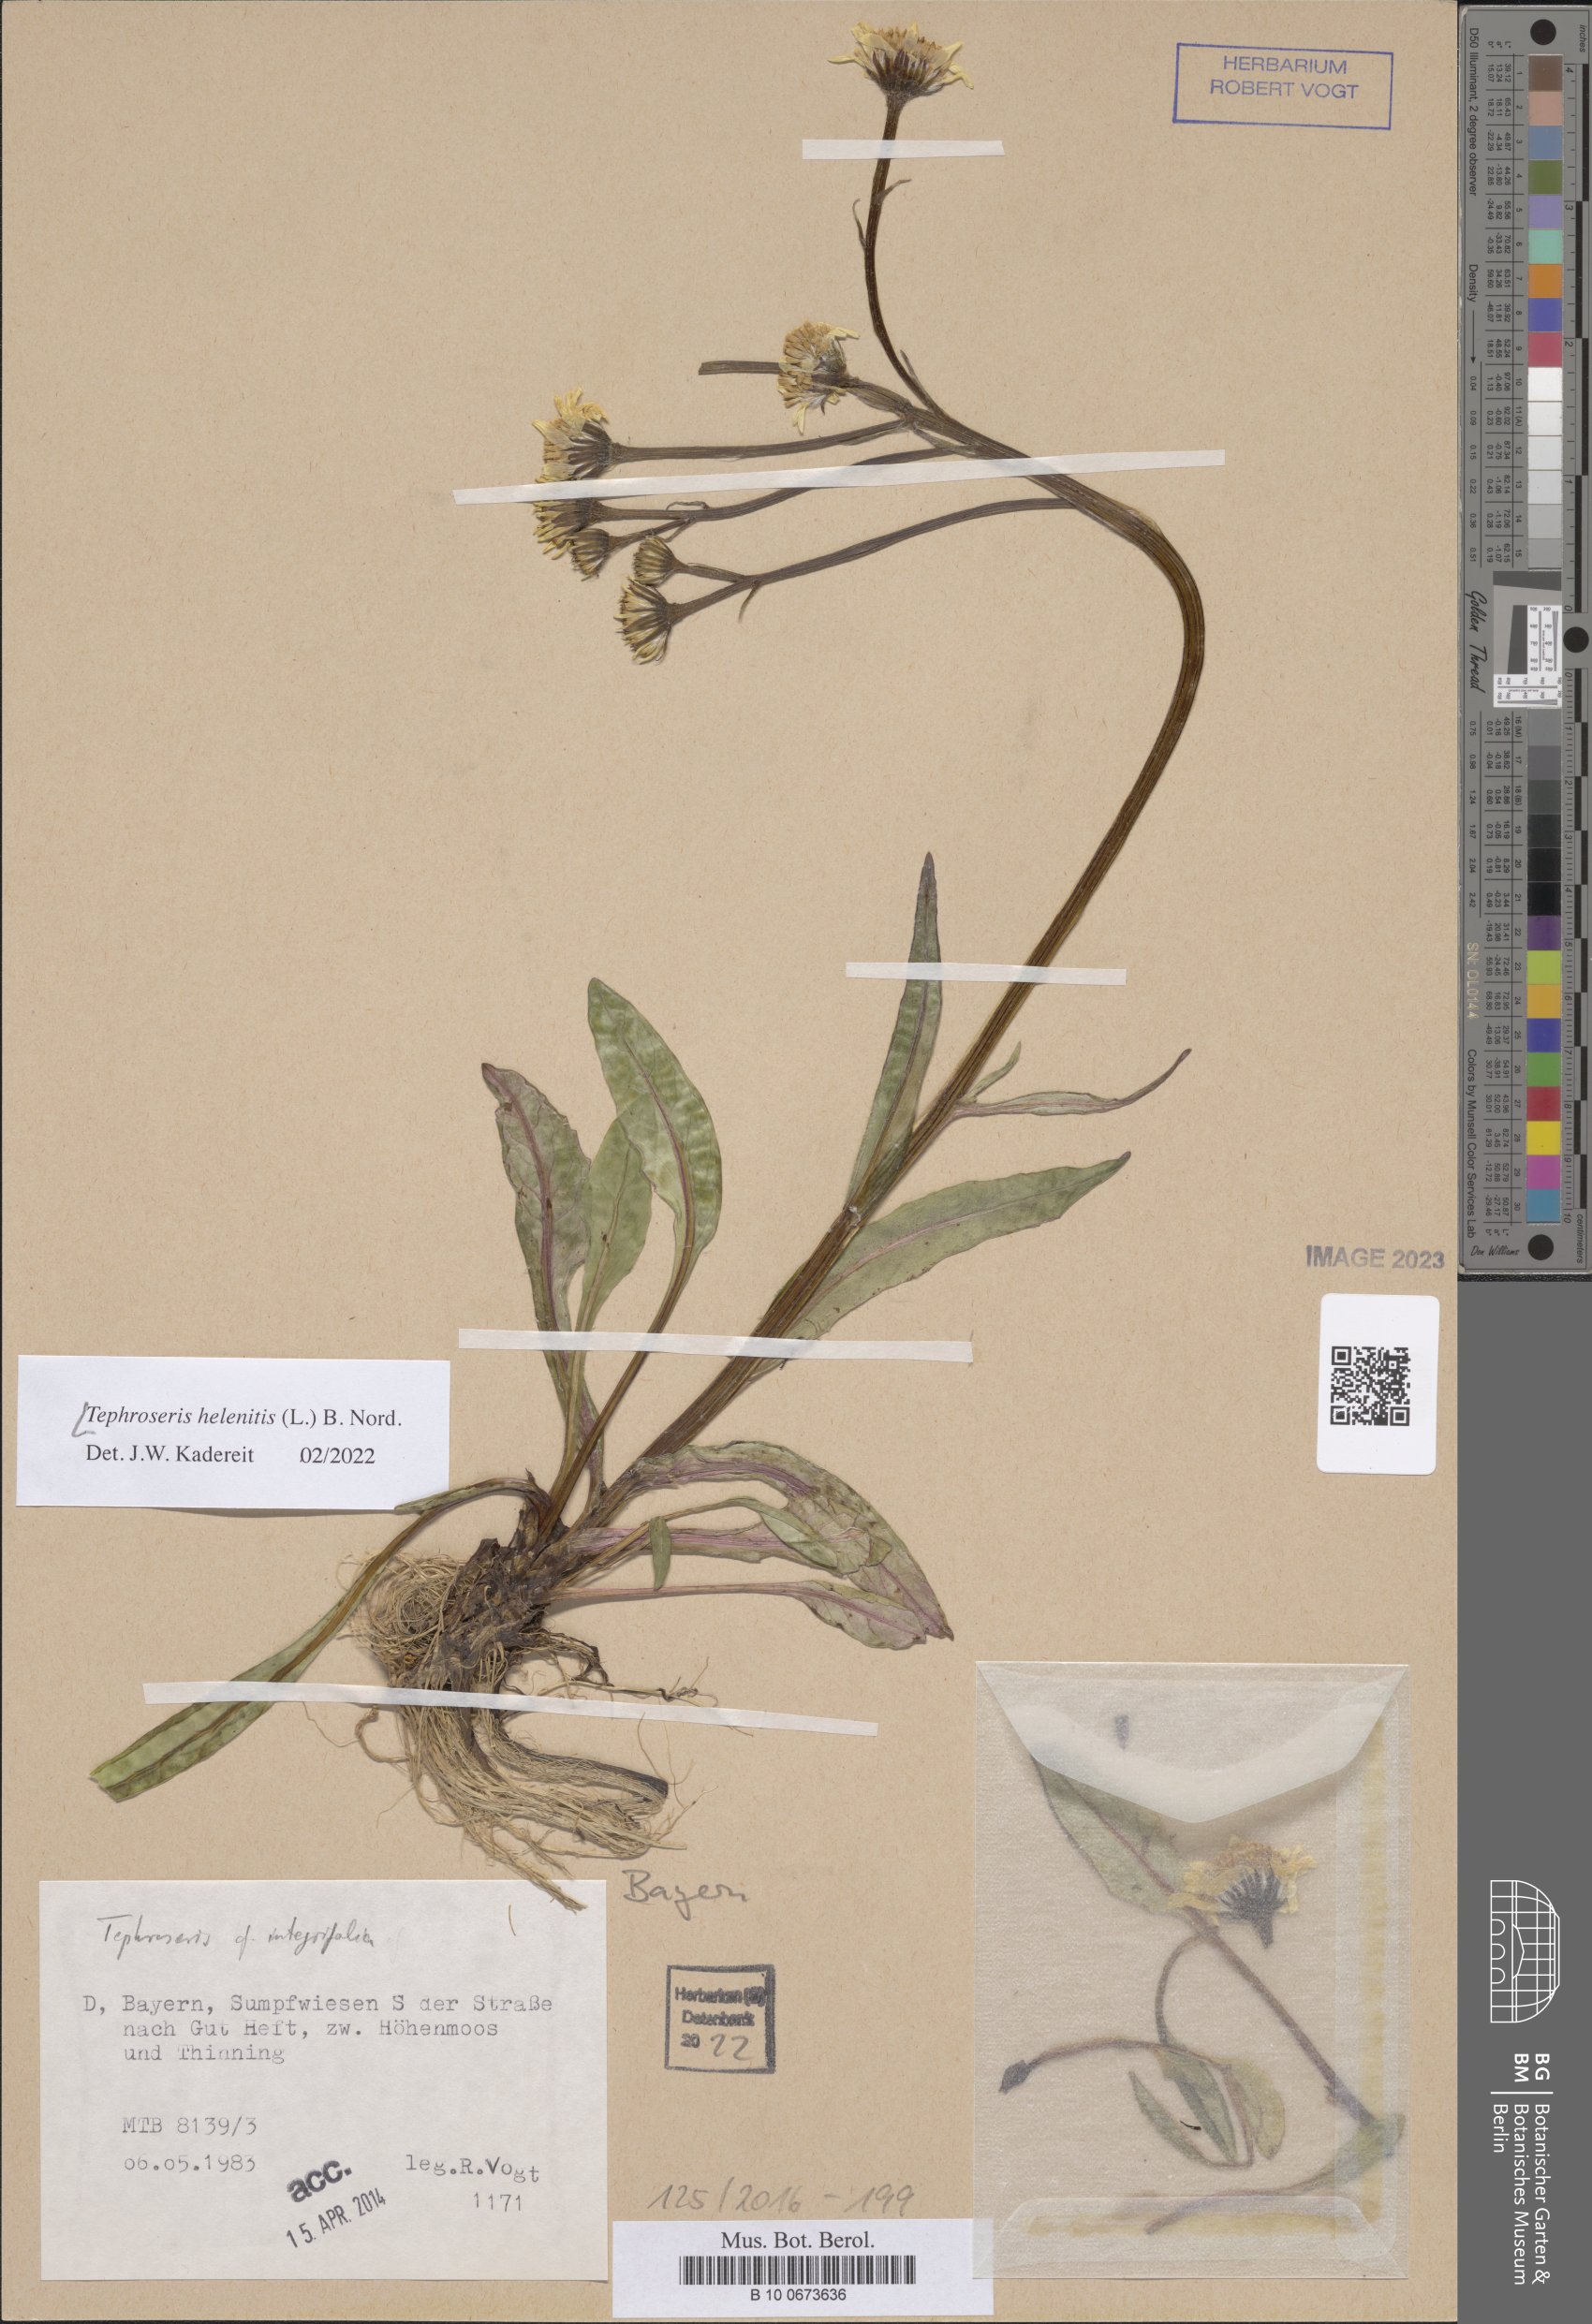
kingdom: Plantae
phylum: Tracheophyta
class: Magnoliopsida
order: Asterales
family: Asteraceae
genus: Tephroseris
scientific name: Tephroseris helenitis
